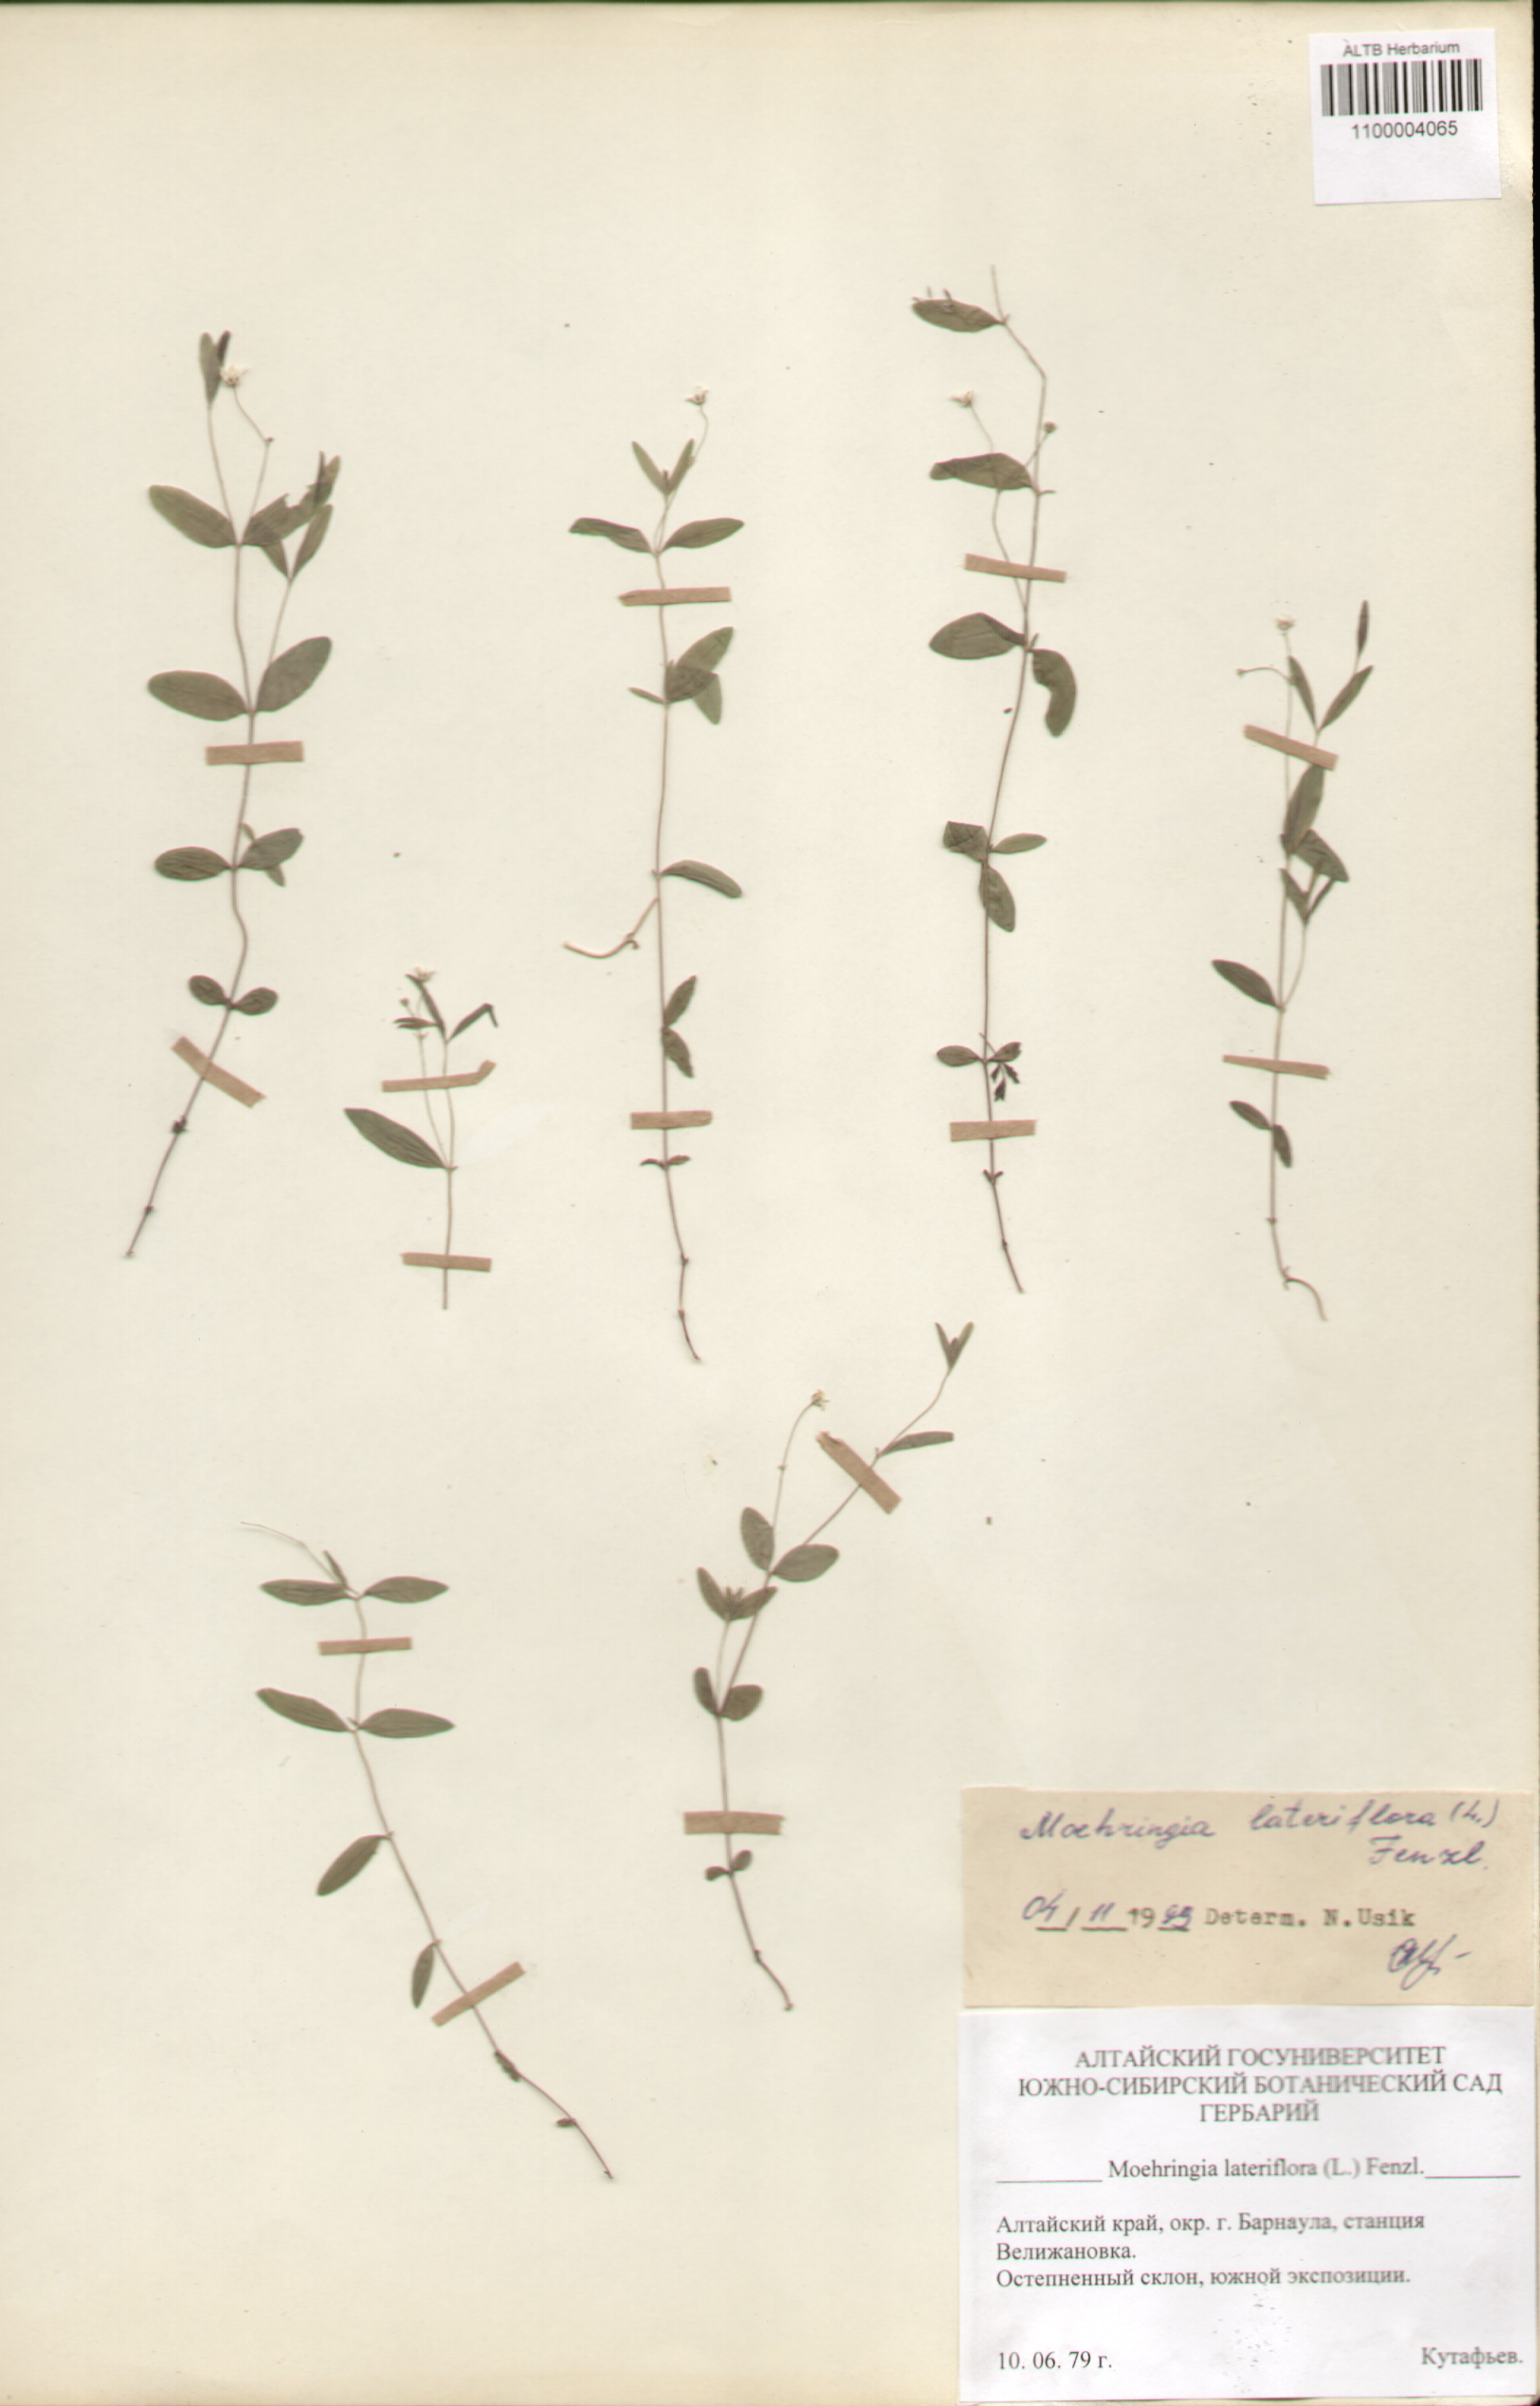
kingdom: Plantae
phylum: Tracheophyta
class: Magnoliopsida
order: Caryophyllales
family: Caryophyllaceae
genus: Moehringia
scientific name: Moehringia lateriflora
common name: Blunt-leaved sandwort
